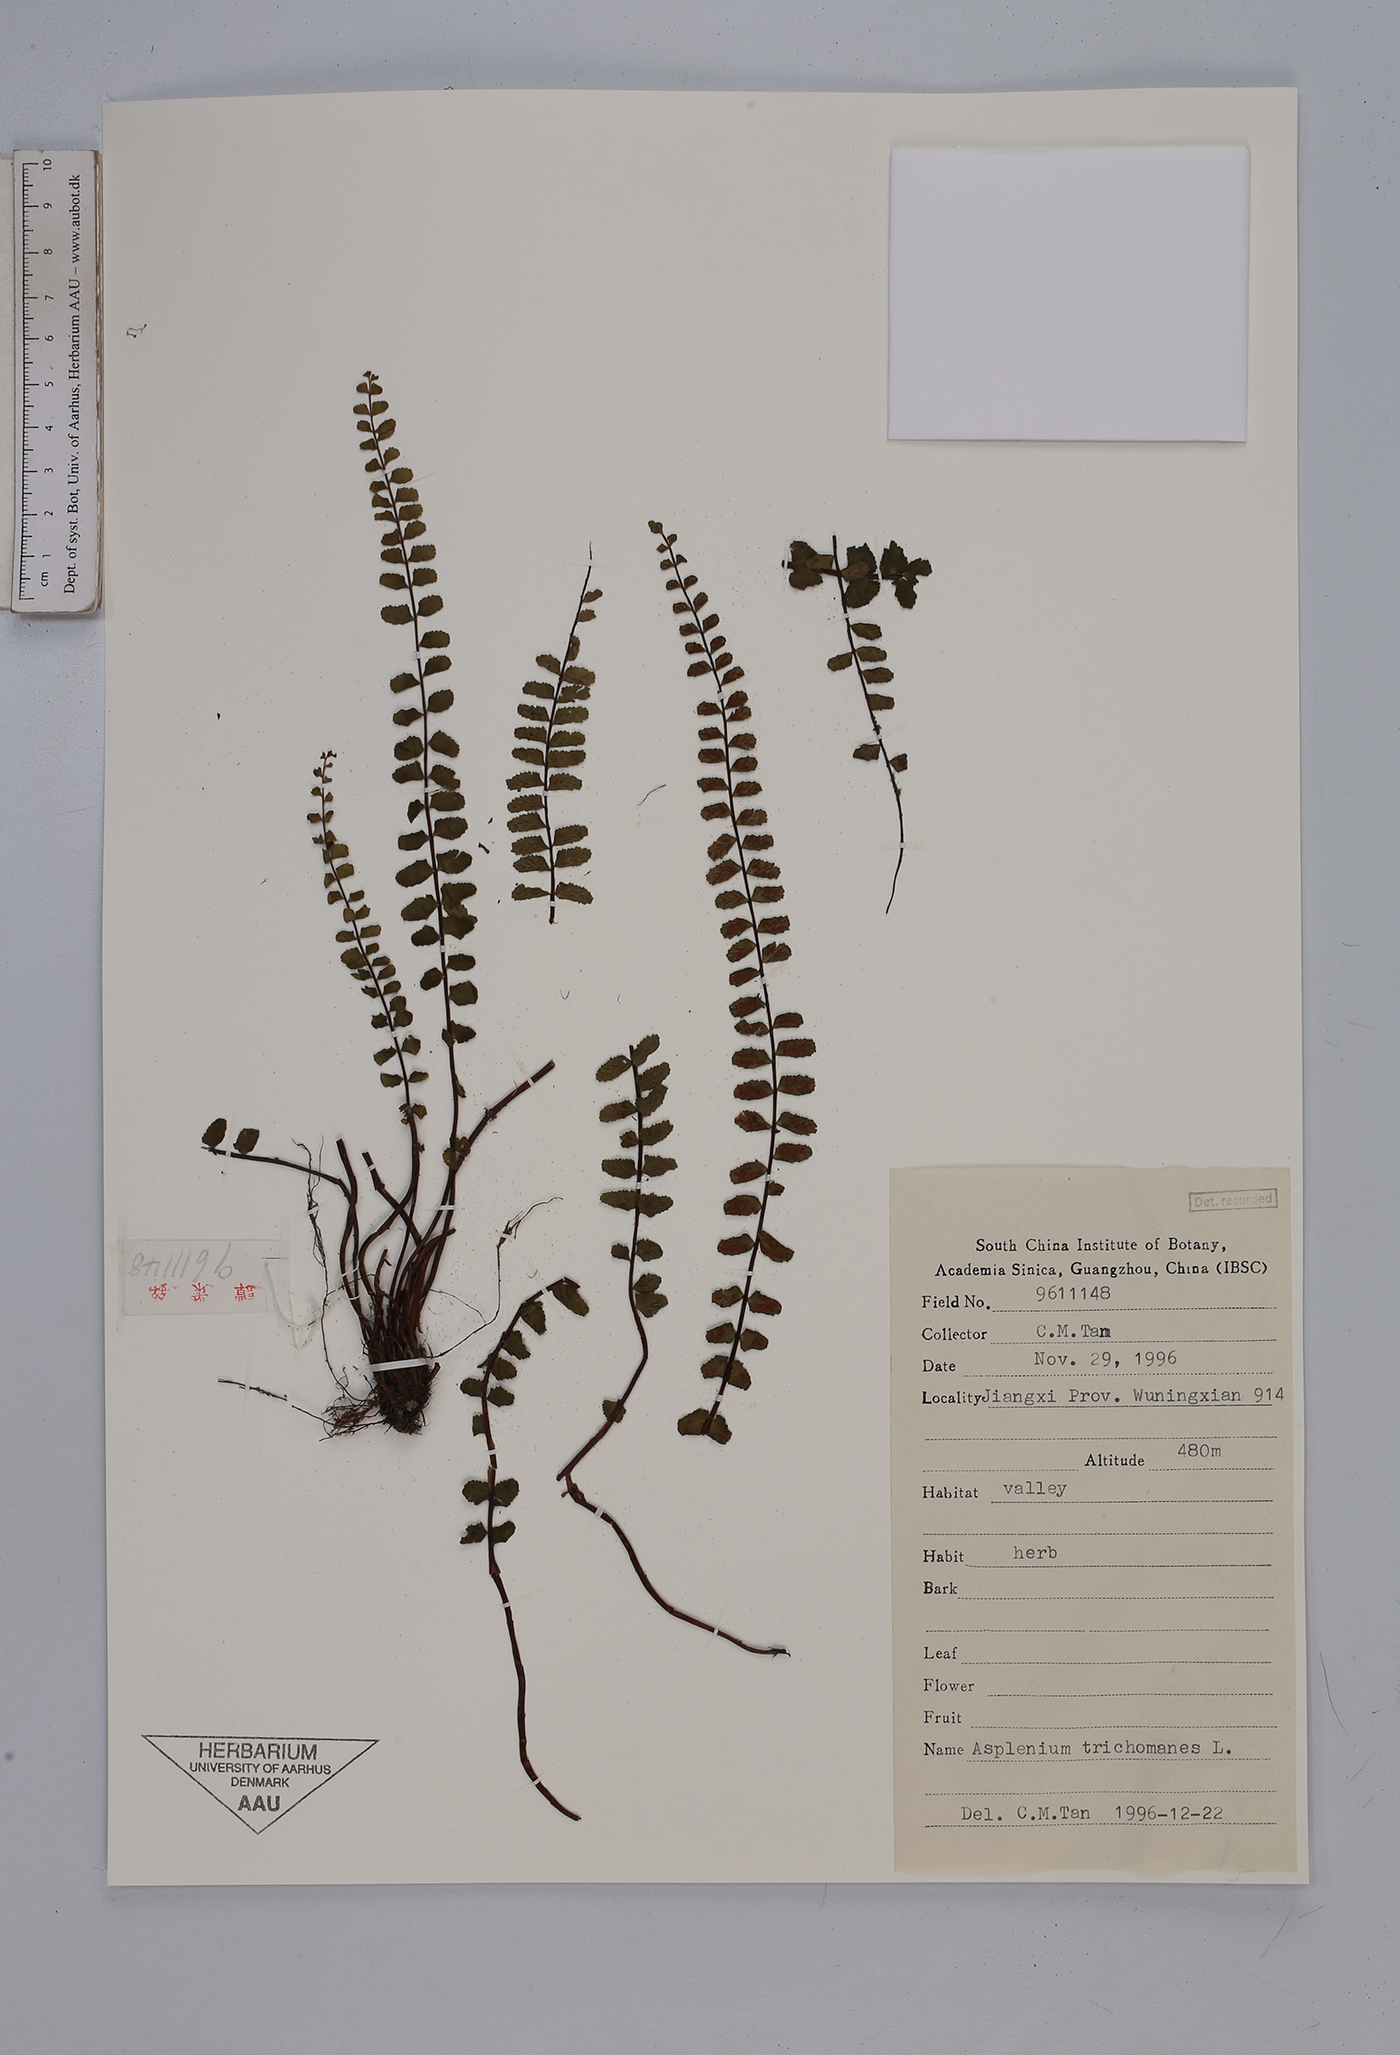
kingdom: Plantae
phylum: Tracheophyta
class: Polypodiopsida
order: Polypodiales
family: Aspleniaceae
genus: Asplenium
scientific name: Asplenium trichomanes
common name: Maidenhair spleenwort
